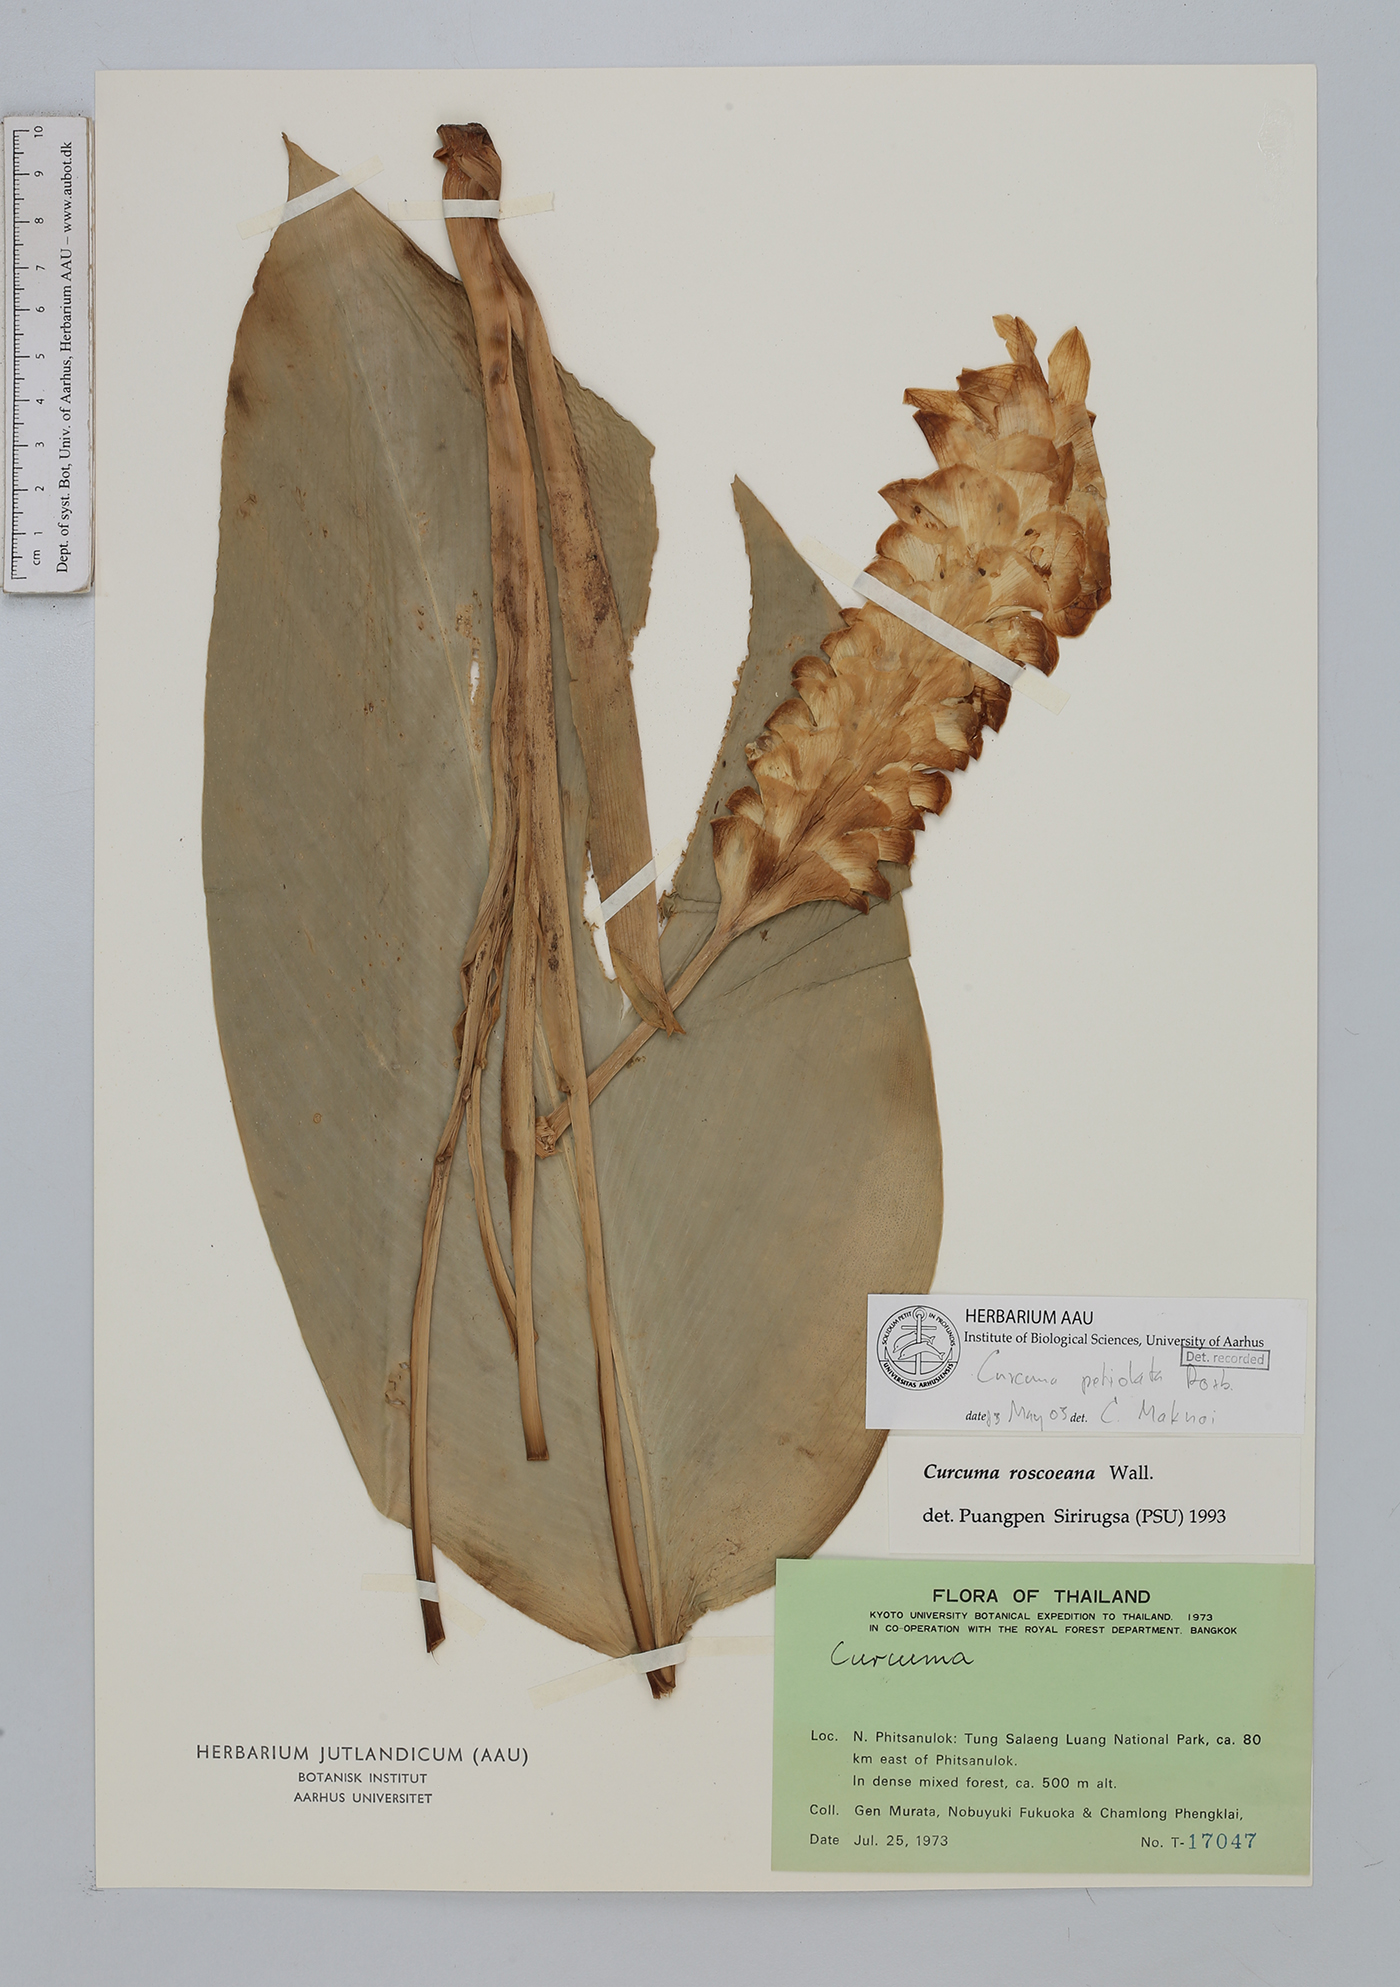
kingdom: Plantae
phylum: Tracheophyta
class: Liliopsida
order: Zingiberales
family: Zingiberaceae
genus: Curcuma
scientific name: Curcuma petiolata
